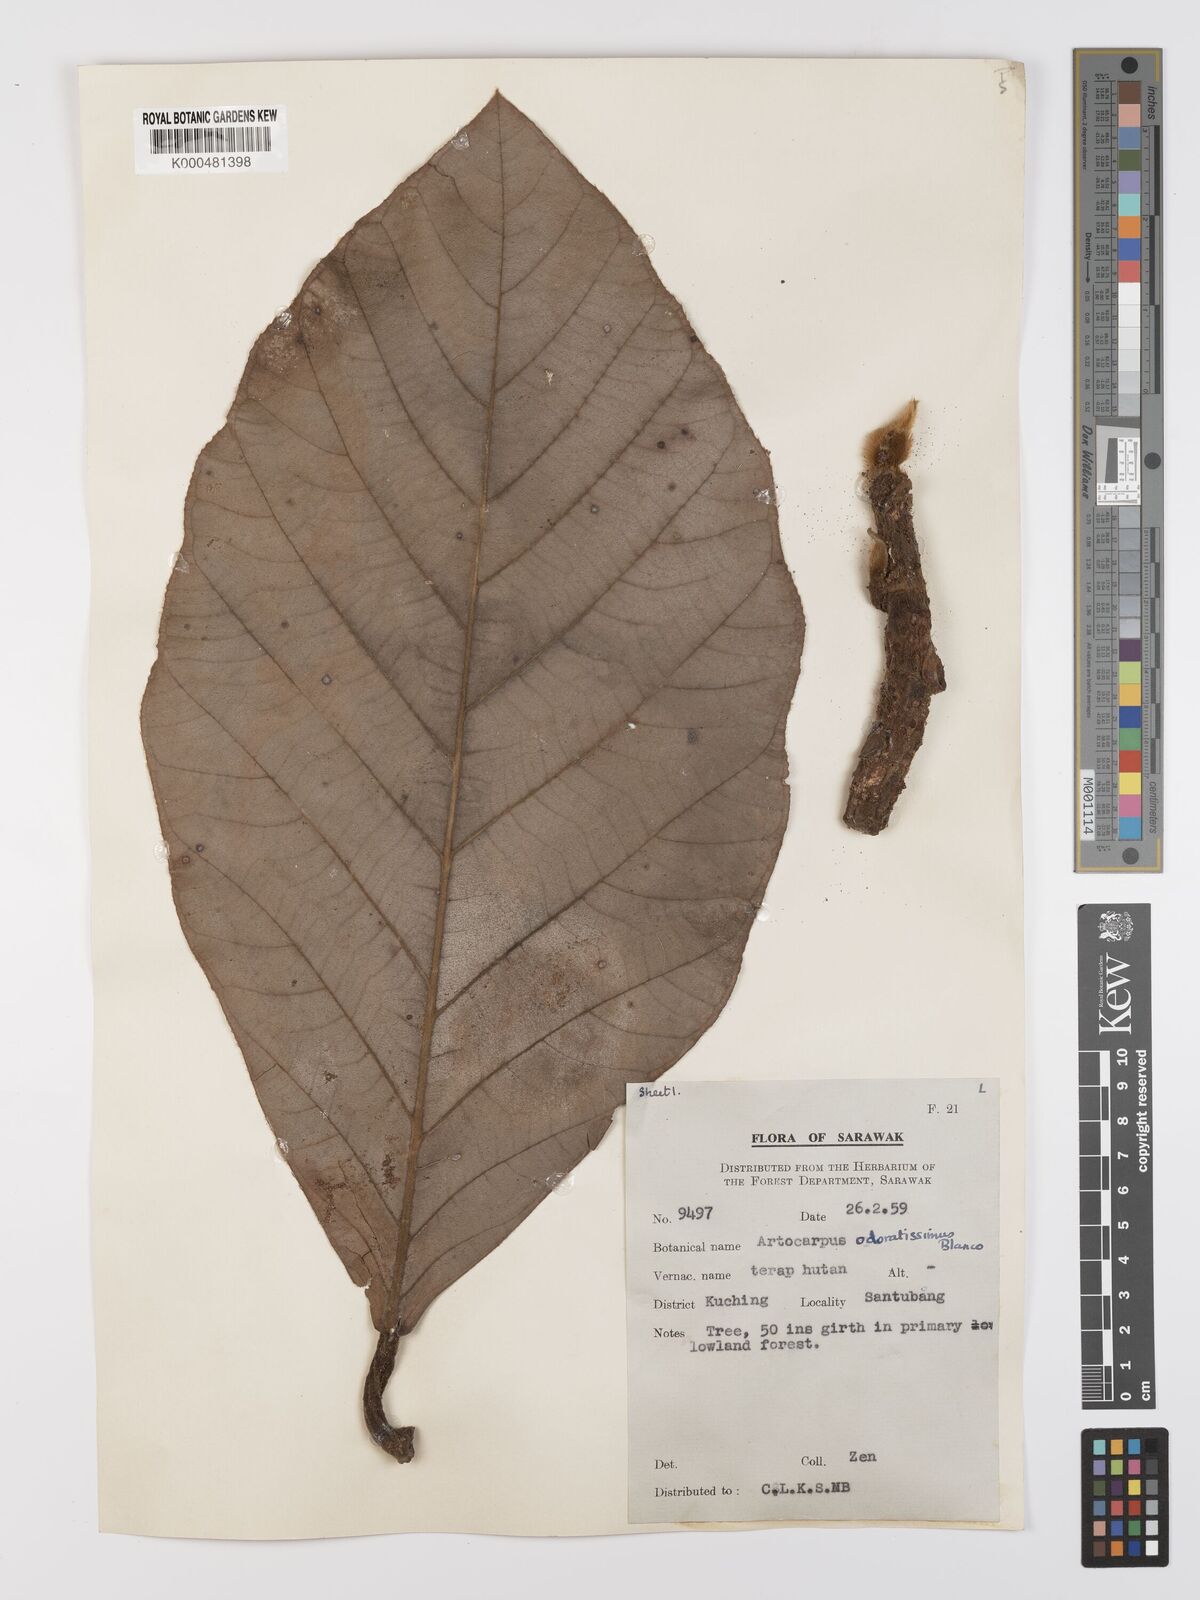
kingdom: Plantae
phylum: Tracheophyta
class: Magnoliopsida
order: Rosales
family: Moraceae
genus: Artocarpus
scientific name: Artocarpus odoratissimus
